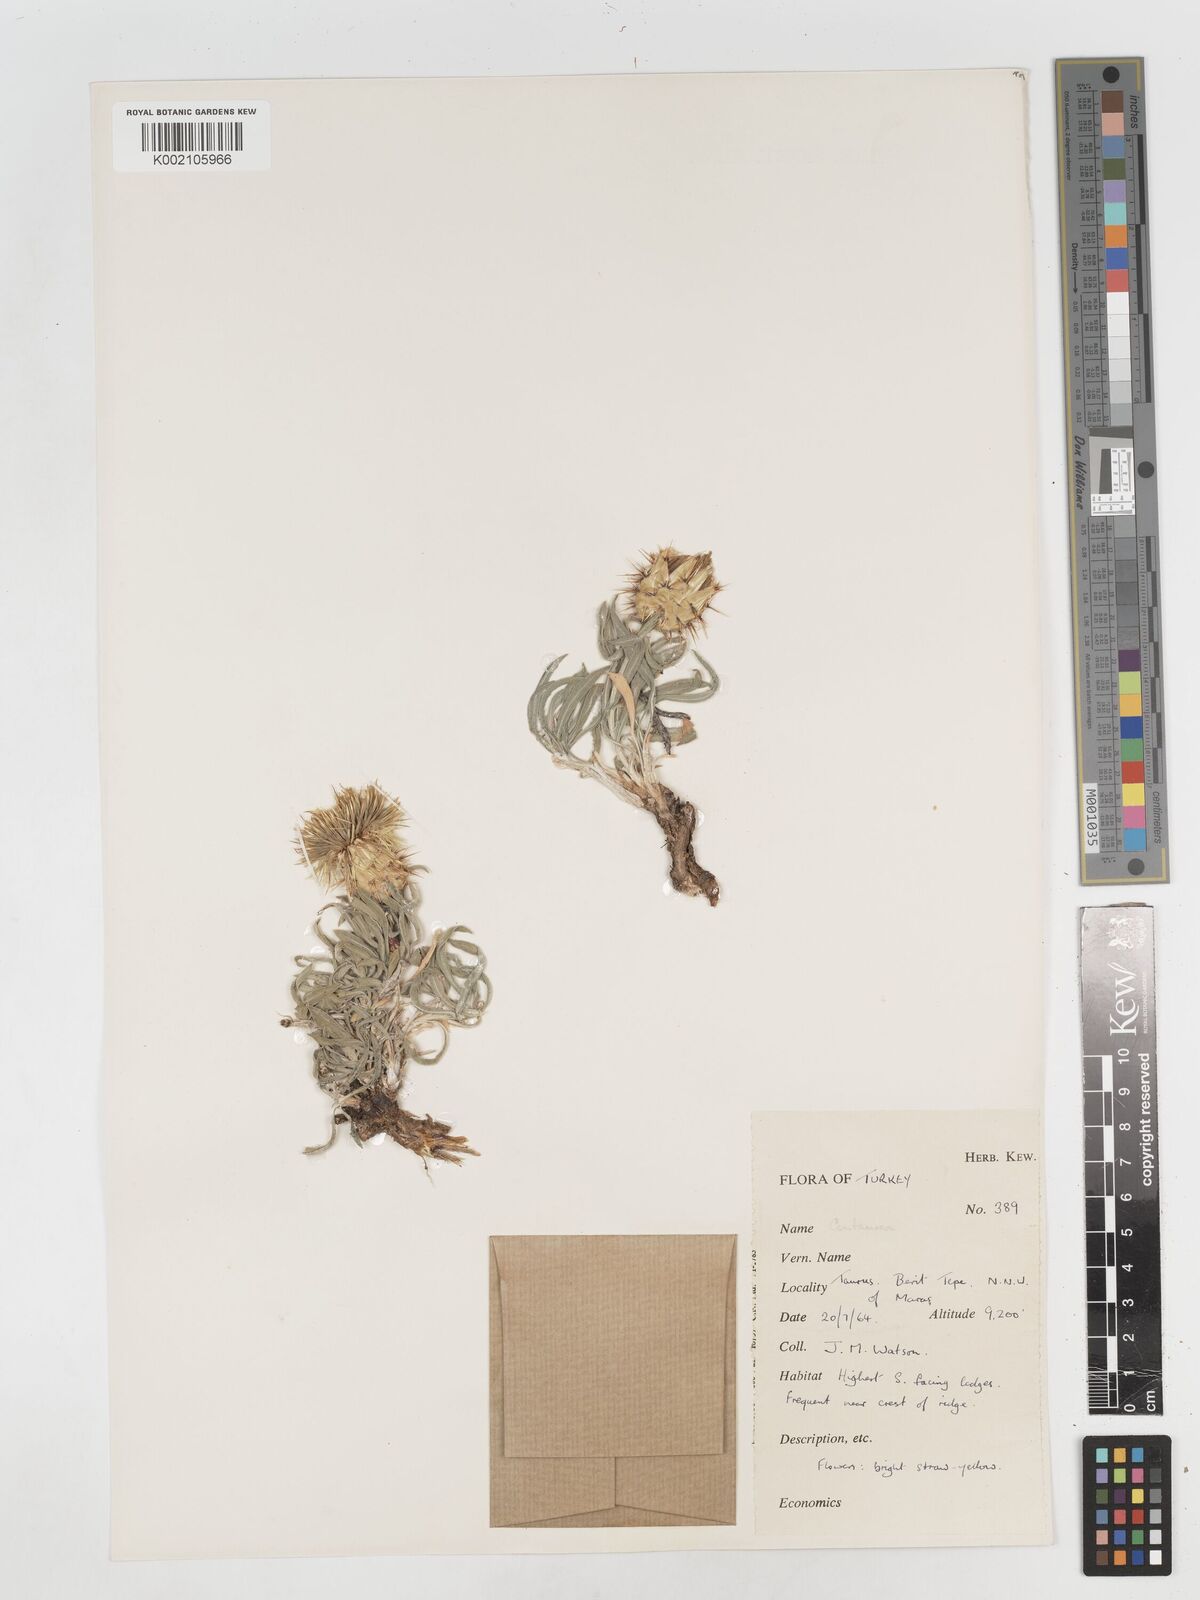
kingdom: Plantae
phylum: Tracheophyta
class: Magnoliopsida
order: Asterales
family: Asteraceae
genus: Centaurea
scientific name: Centaurea
